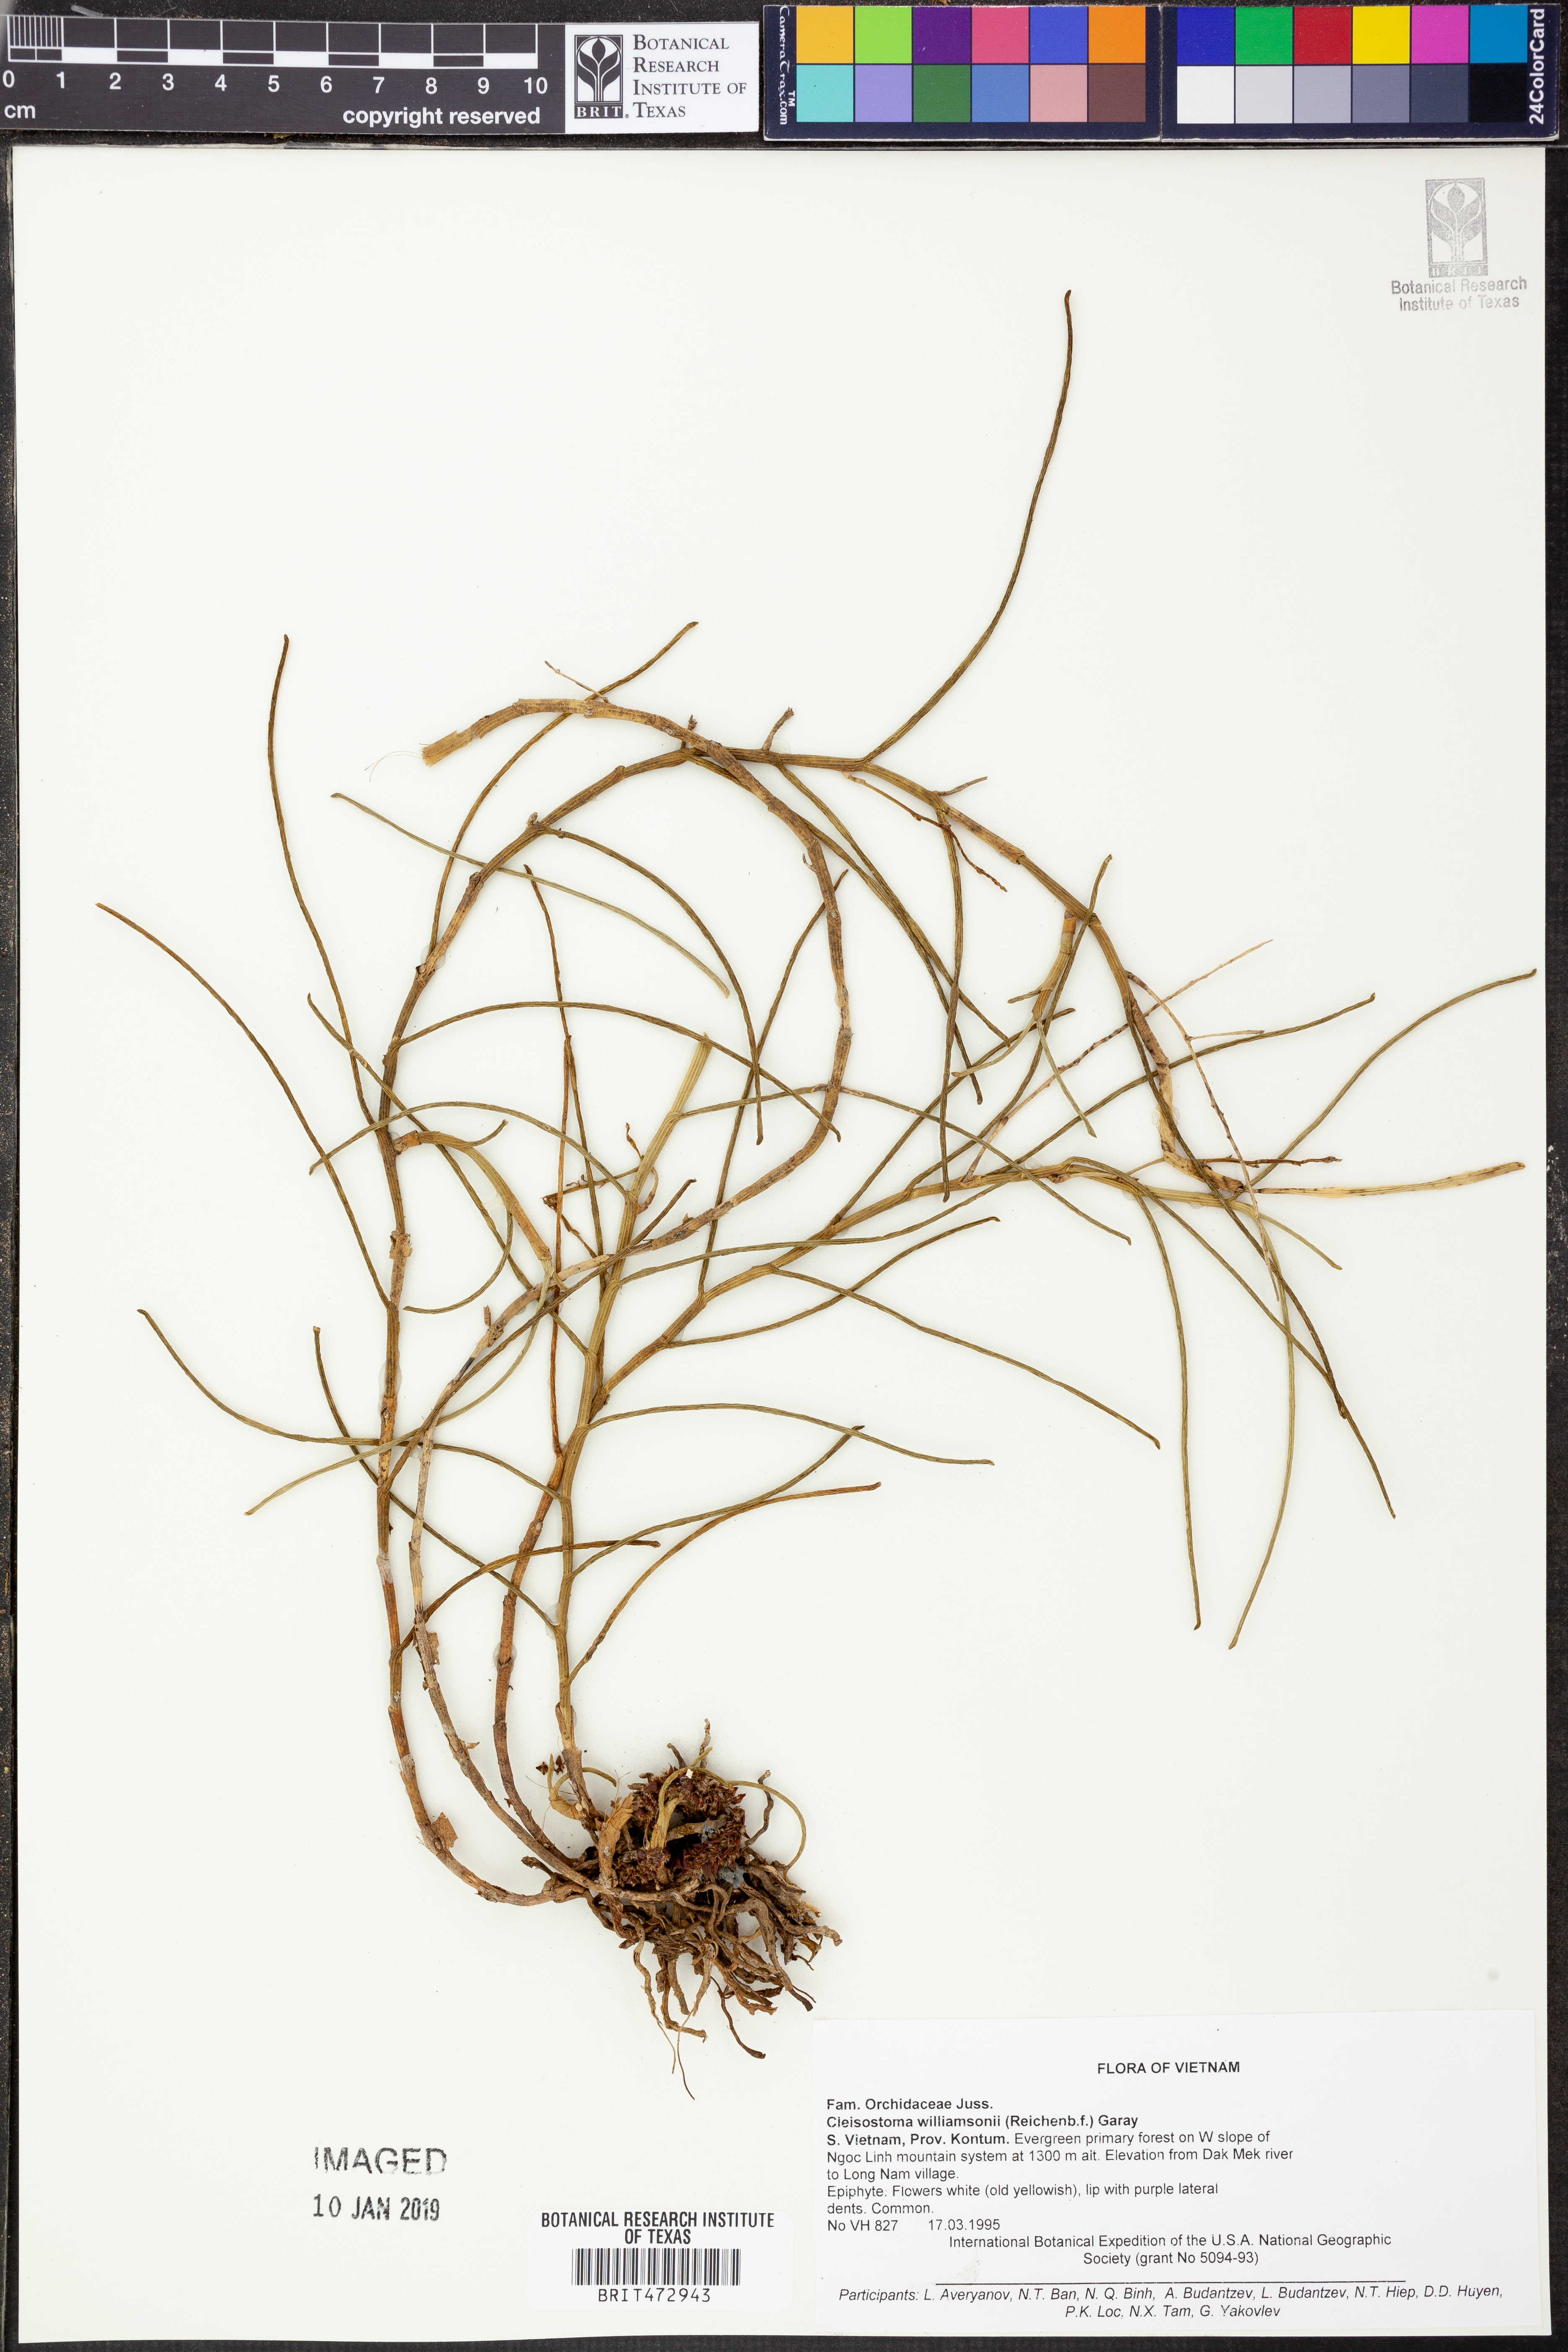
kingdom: Plantae
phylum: Tracheophyta
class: Liliopsida
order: Asparagales
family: Orchidaceae
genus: Cleisostoma
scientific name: Cleisostoma williamsonii
